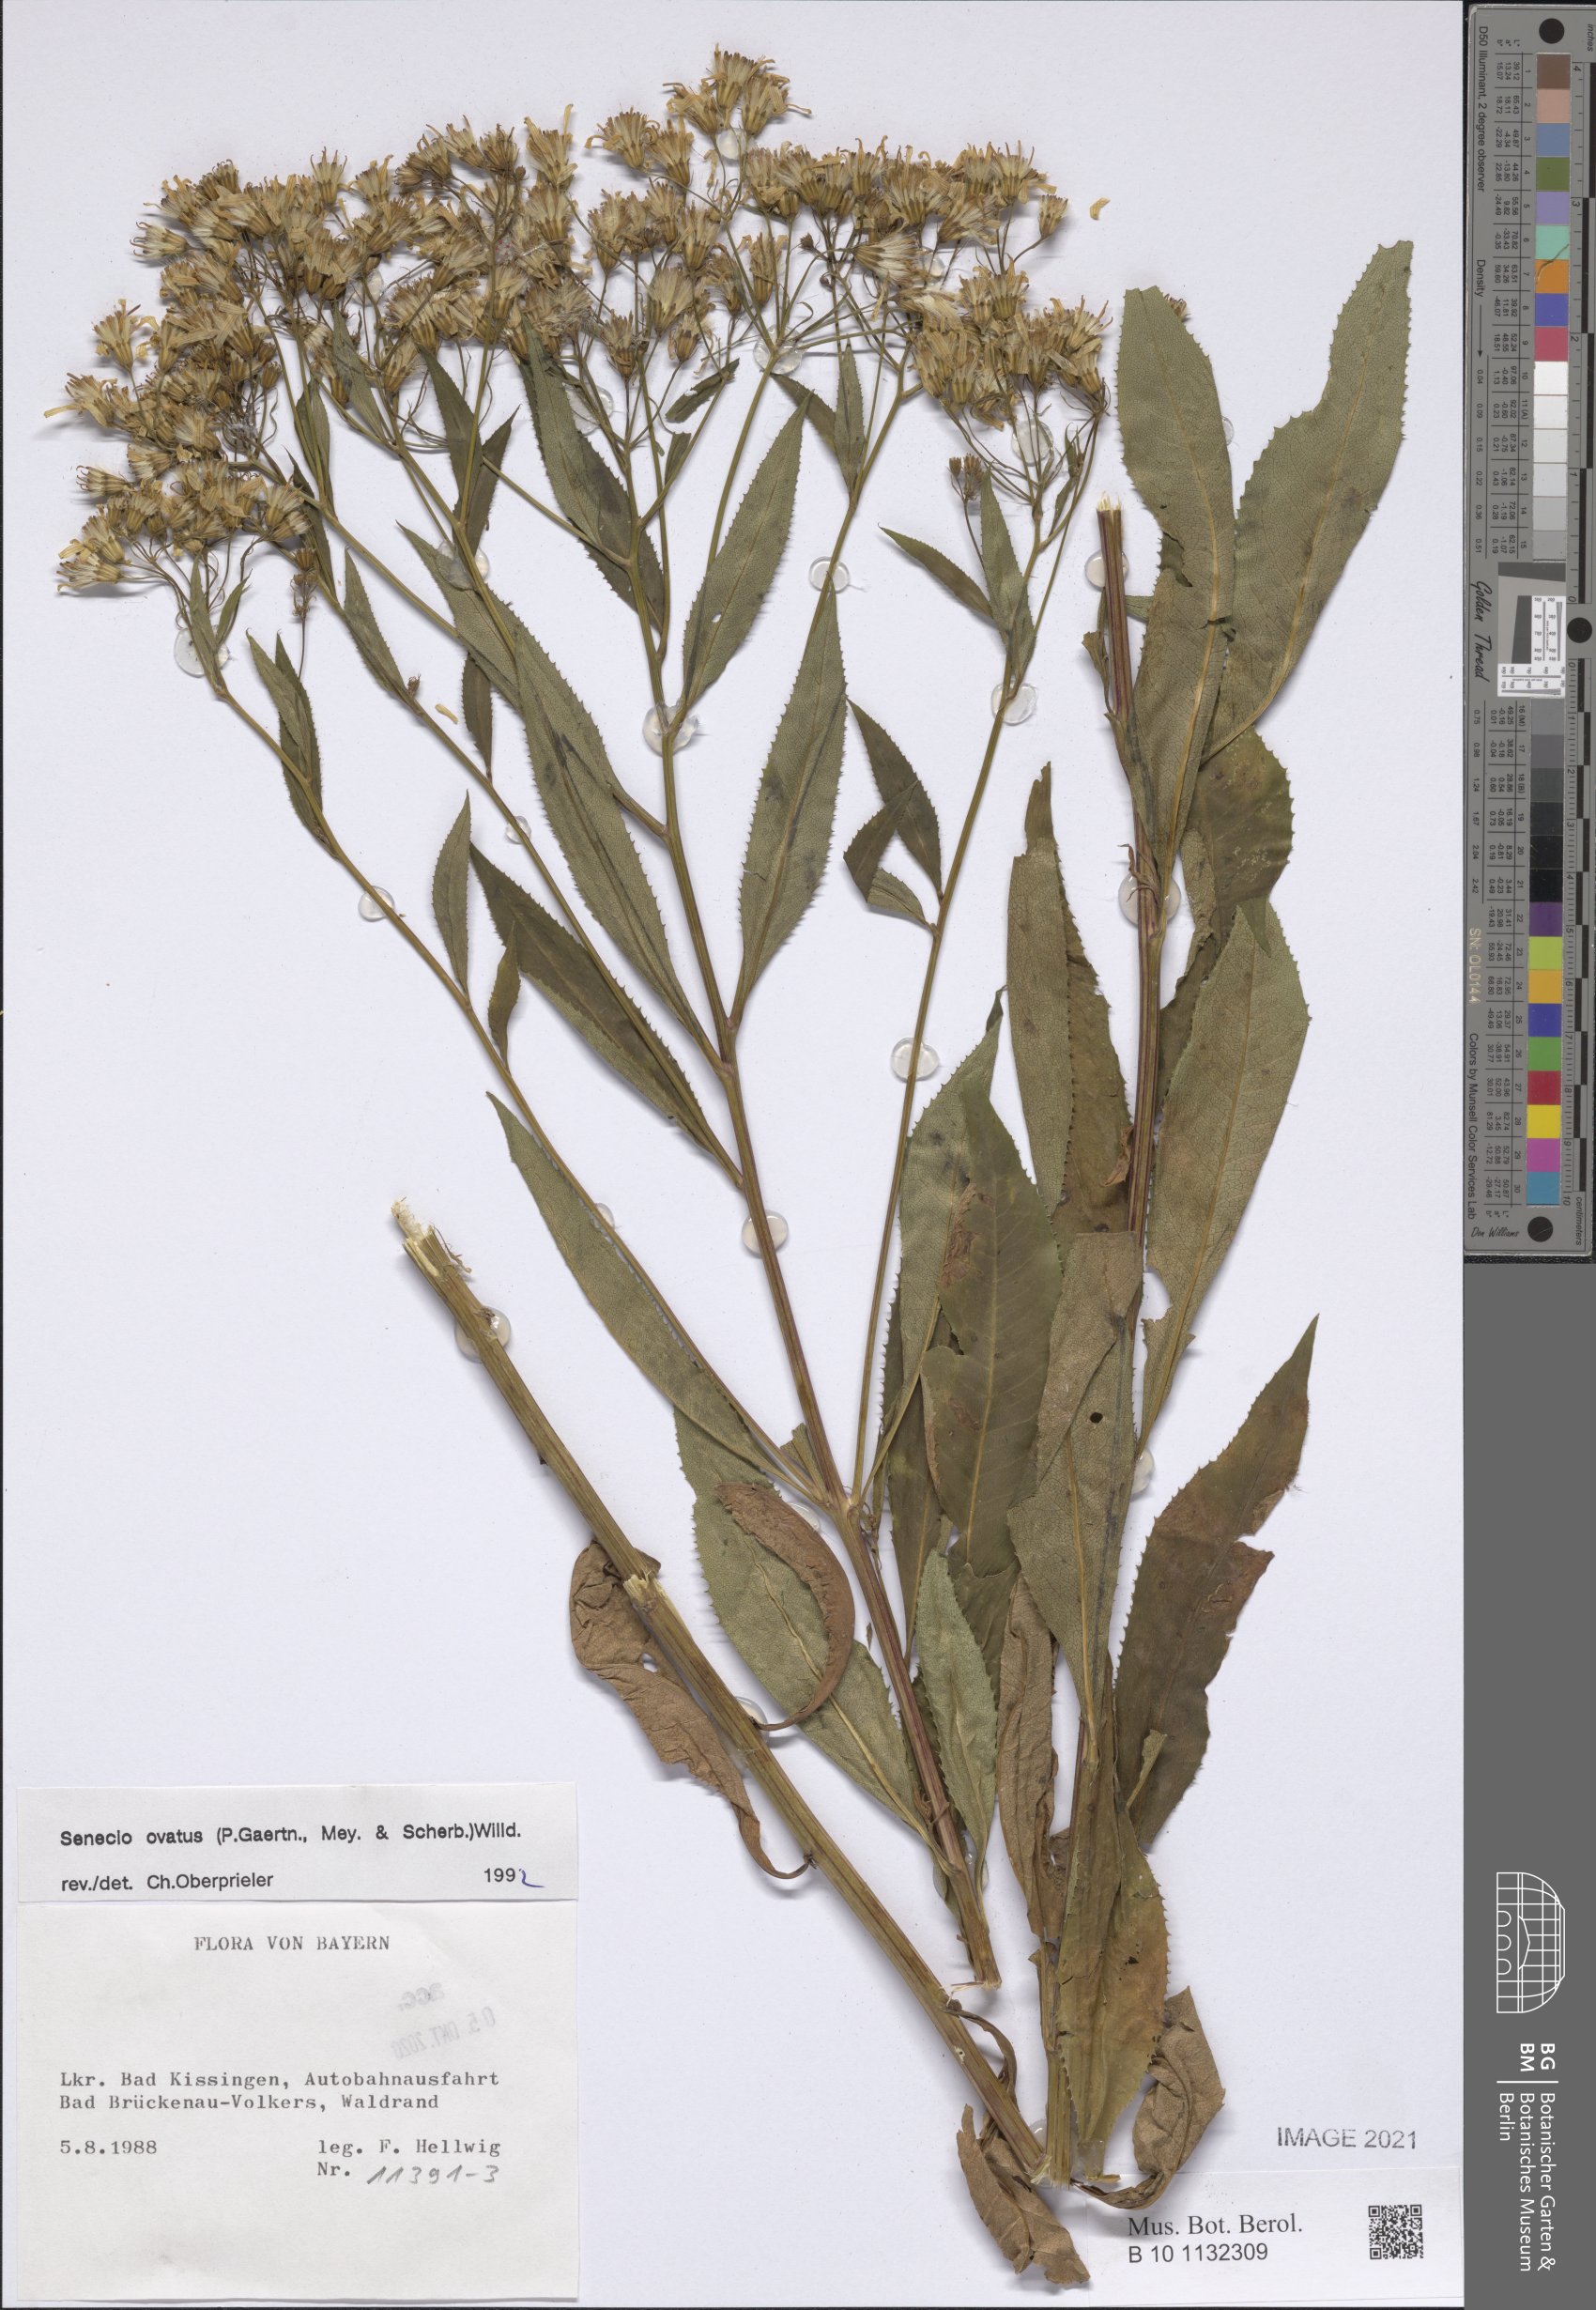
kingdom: Plantae
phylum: Tracheophyta
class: Magnoliopsida
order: Asterales
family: Asteraceae
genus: Senecio
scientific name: Senecio ovatus
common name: Wood ragwort
